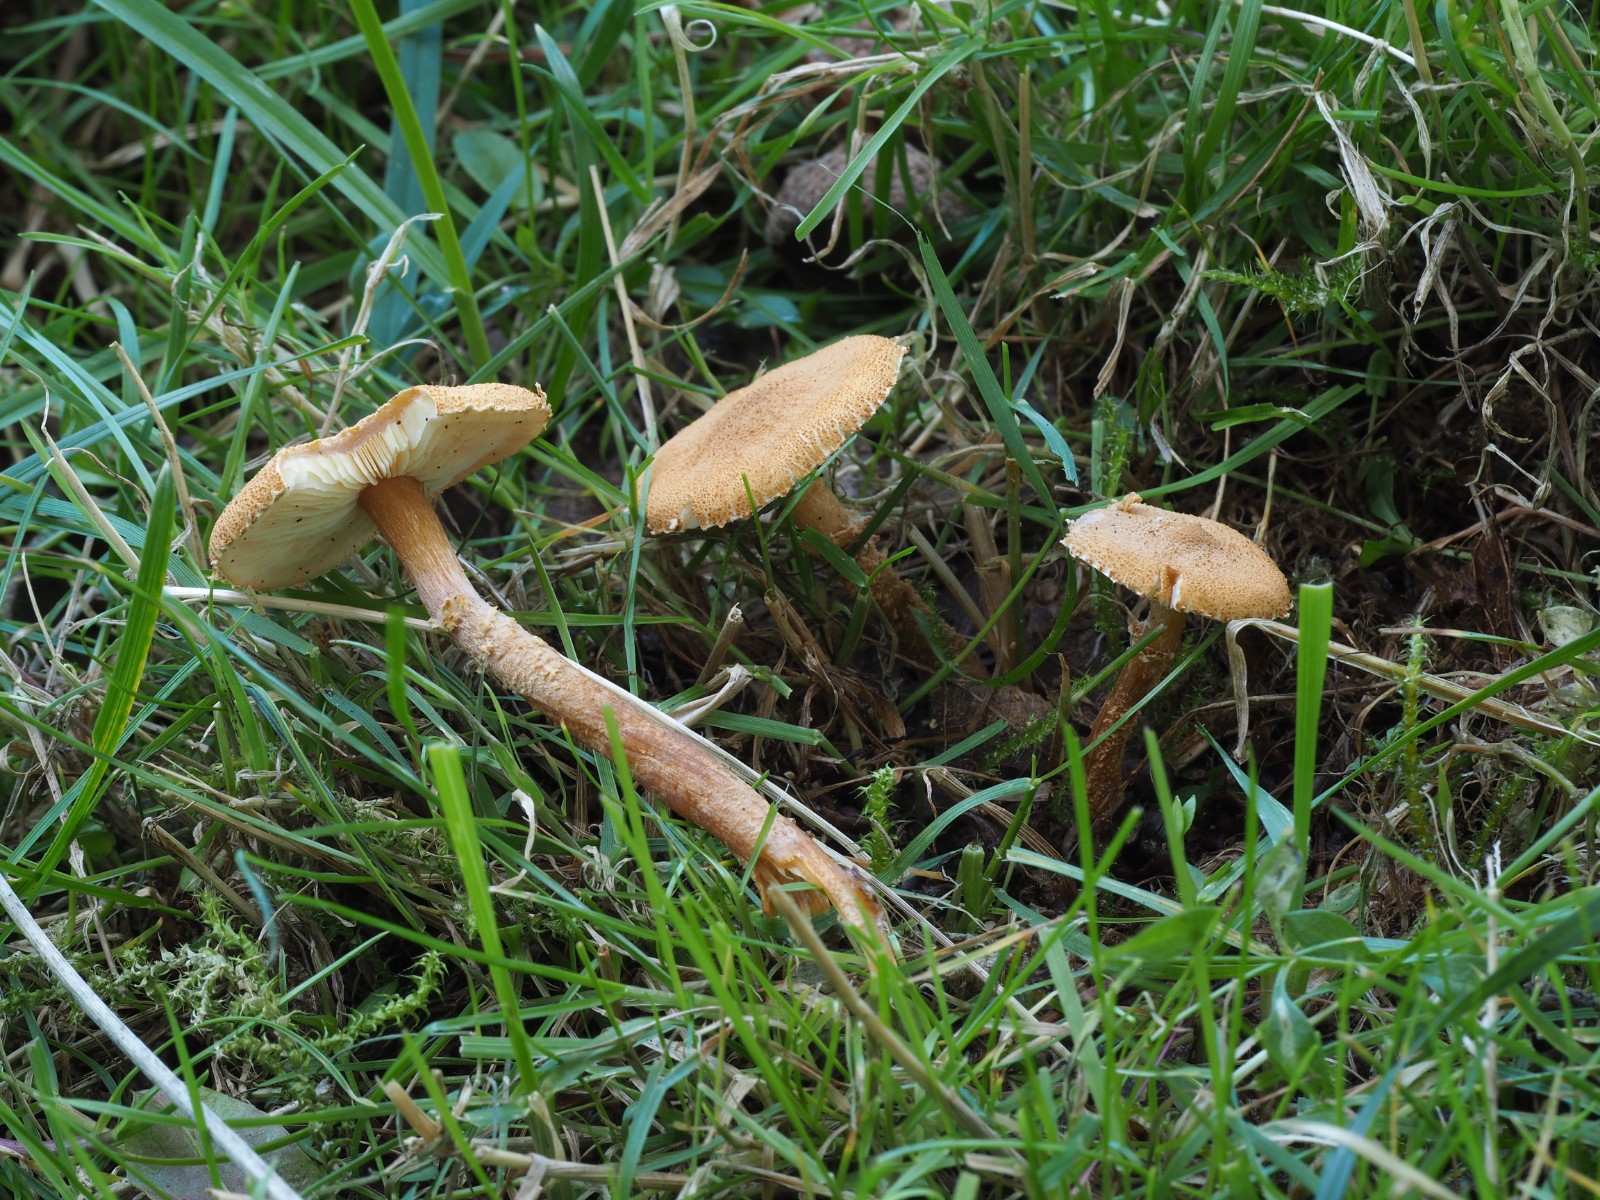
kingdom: Fungi
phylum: Basidiomycota
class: Agaricomycetes
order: Agaricales
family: Tricholomataceae
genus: Cystoderma
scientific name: Cystoderma amianthinum
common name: okkergul grynhat
